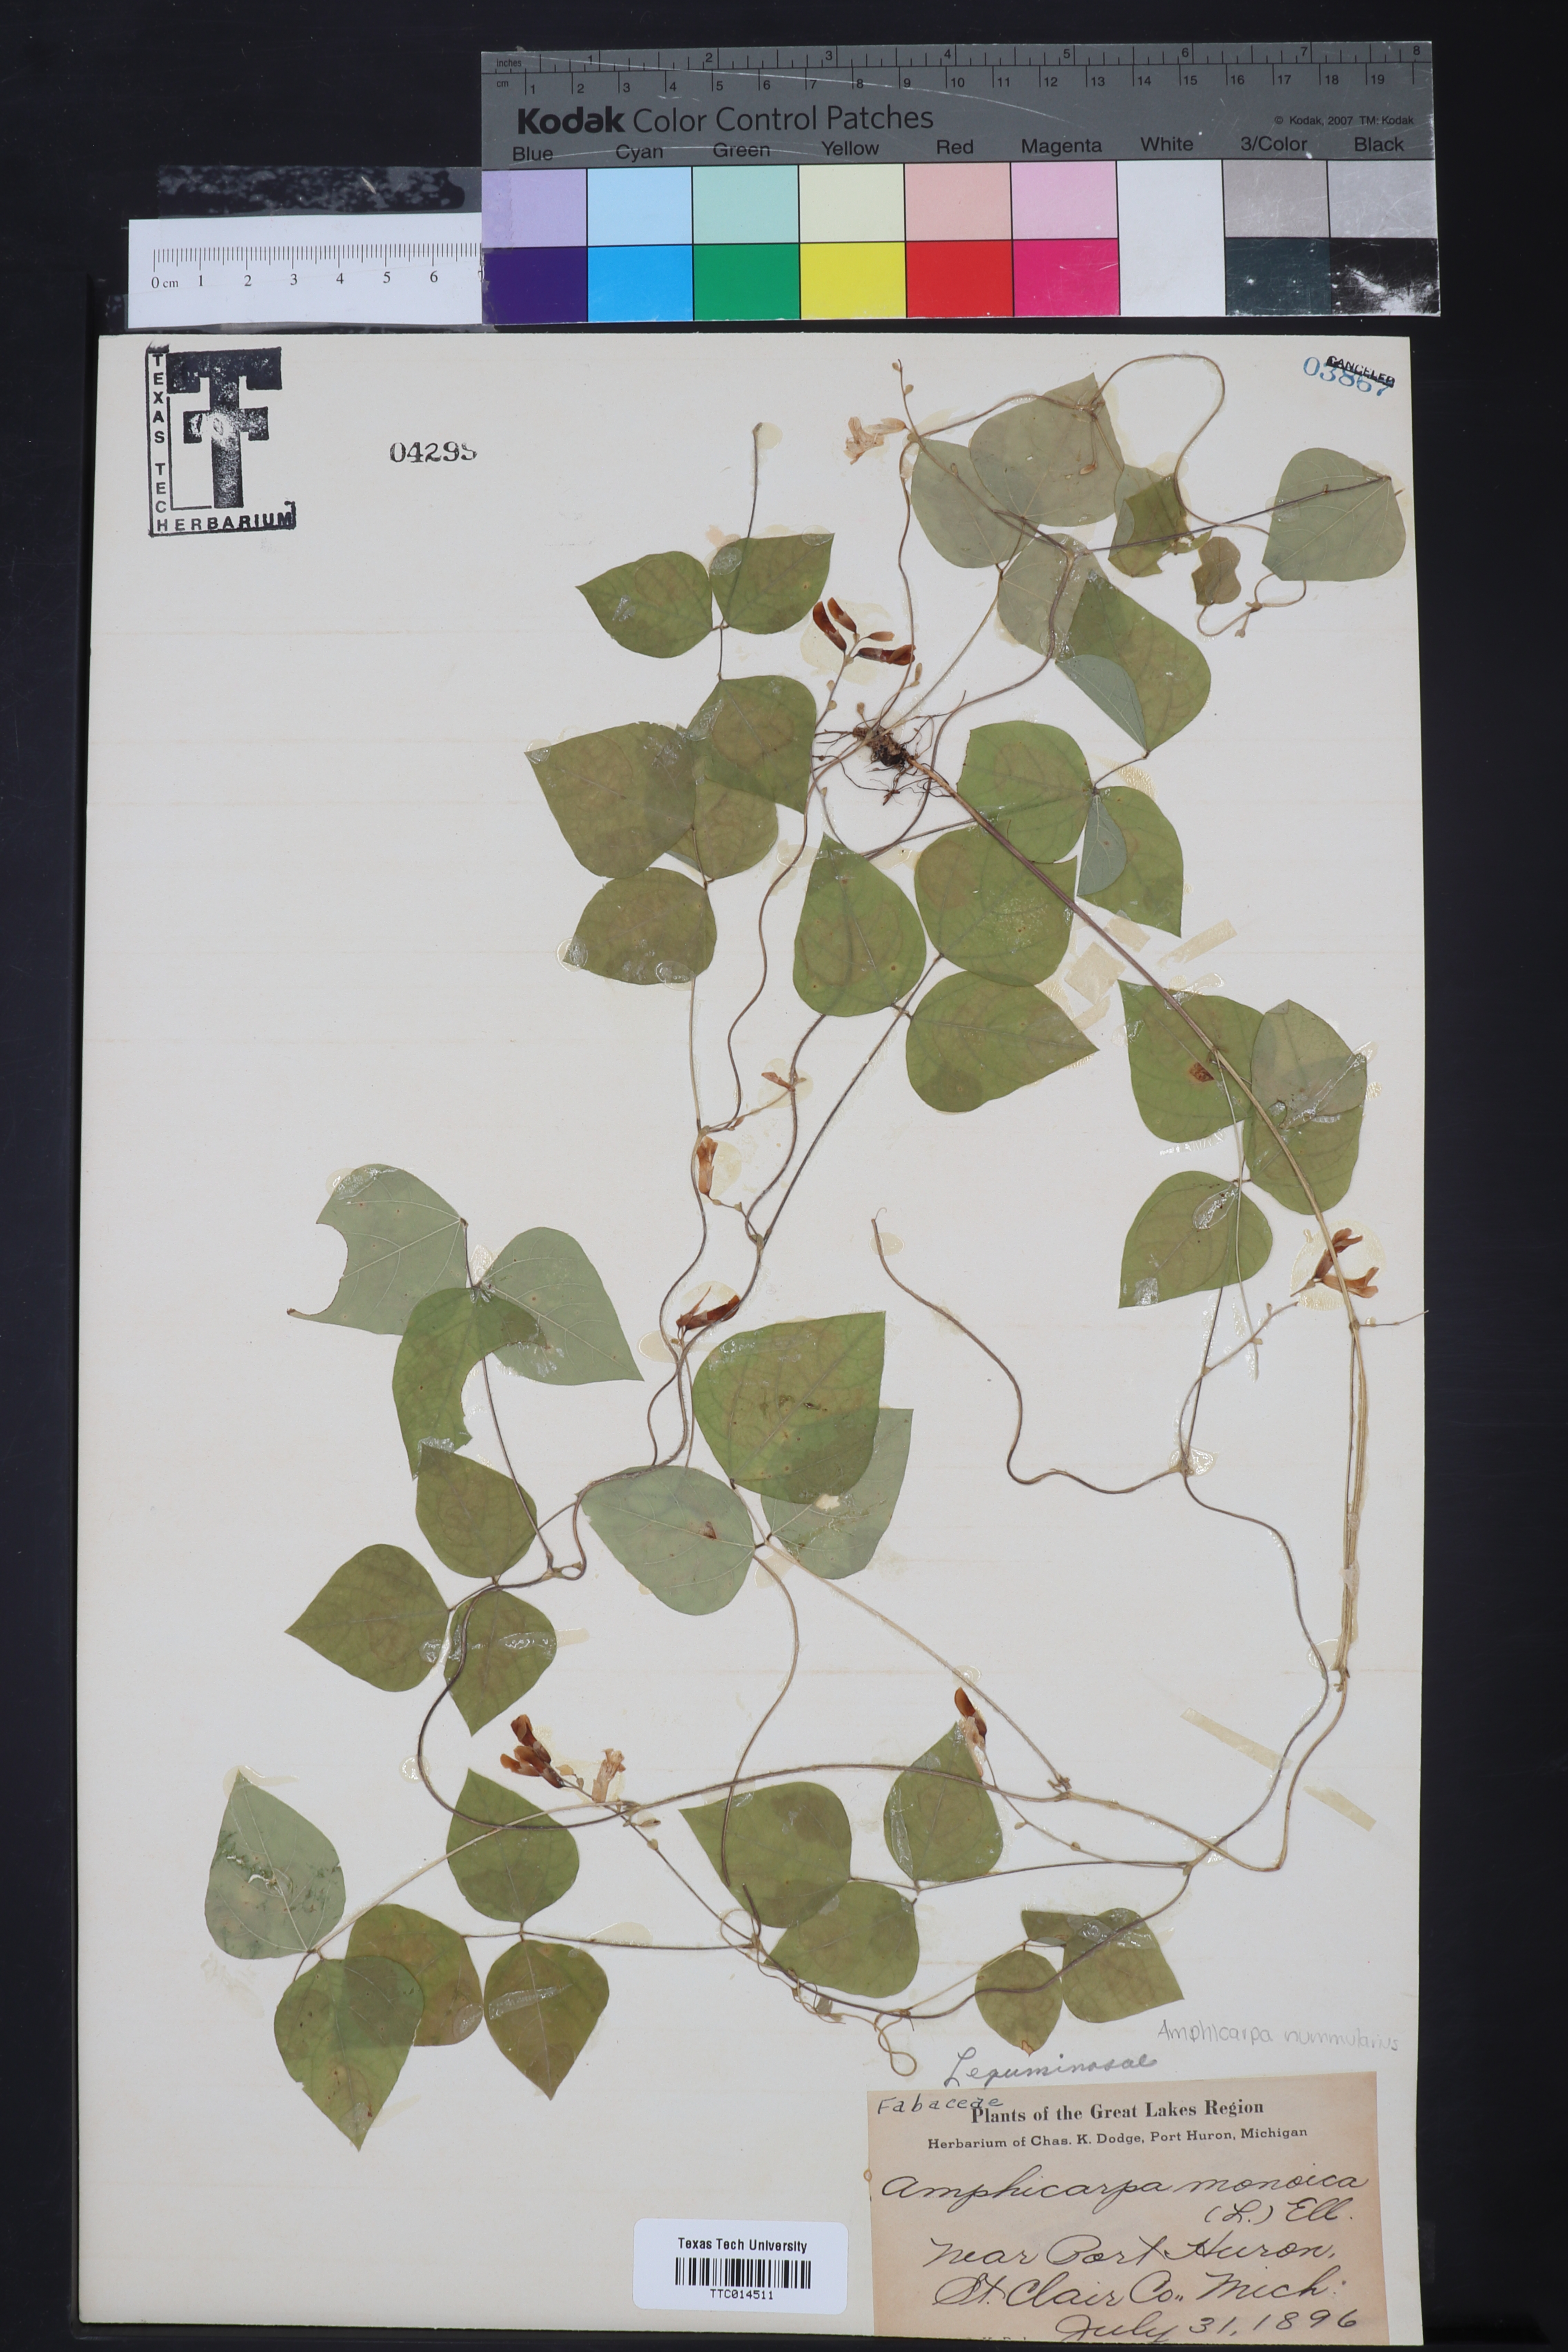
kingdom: Animalia
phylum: Chordata
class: Ascidiacea
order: Stolidobranchia
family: Styelidae
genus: Amphicarpa
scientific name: Amphicarpa
